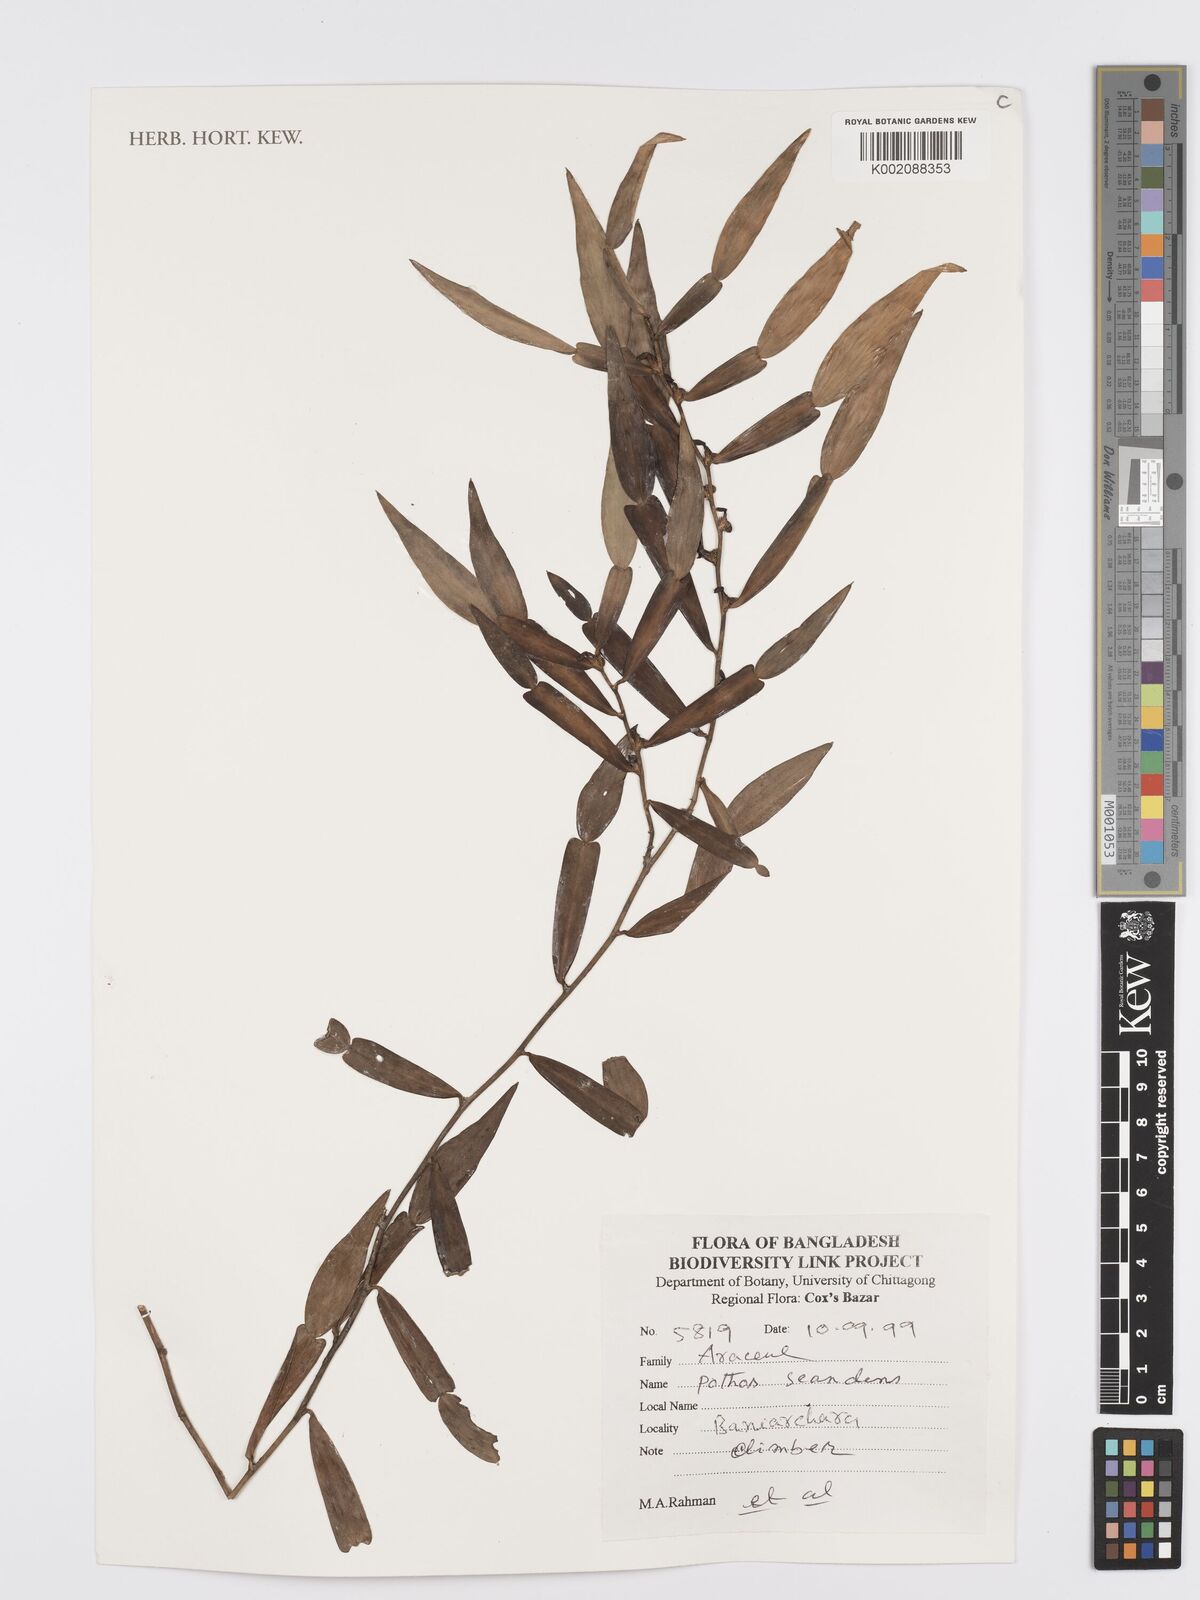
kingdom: Plantae
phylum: Tracheophyta
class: Liliopsida
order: Alismatales
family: Araceae
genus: Pothos
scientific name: Pothos scandens
